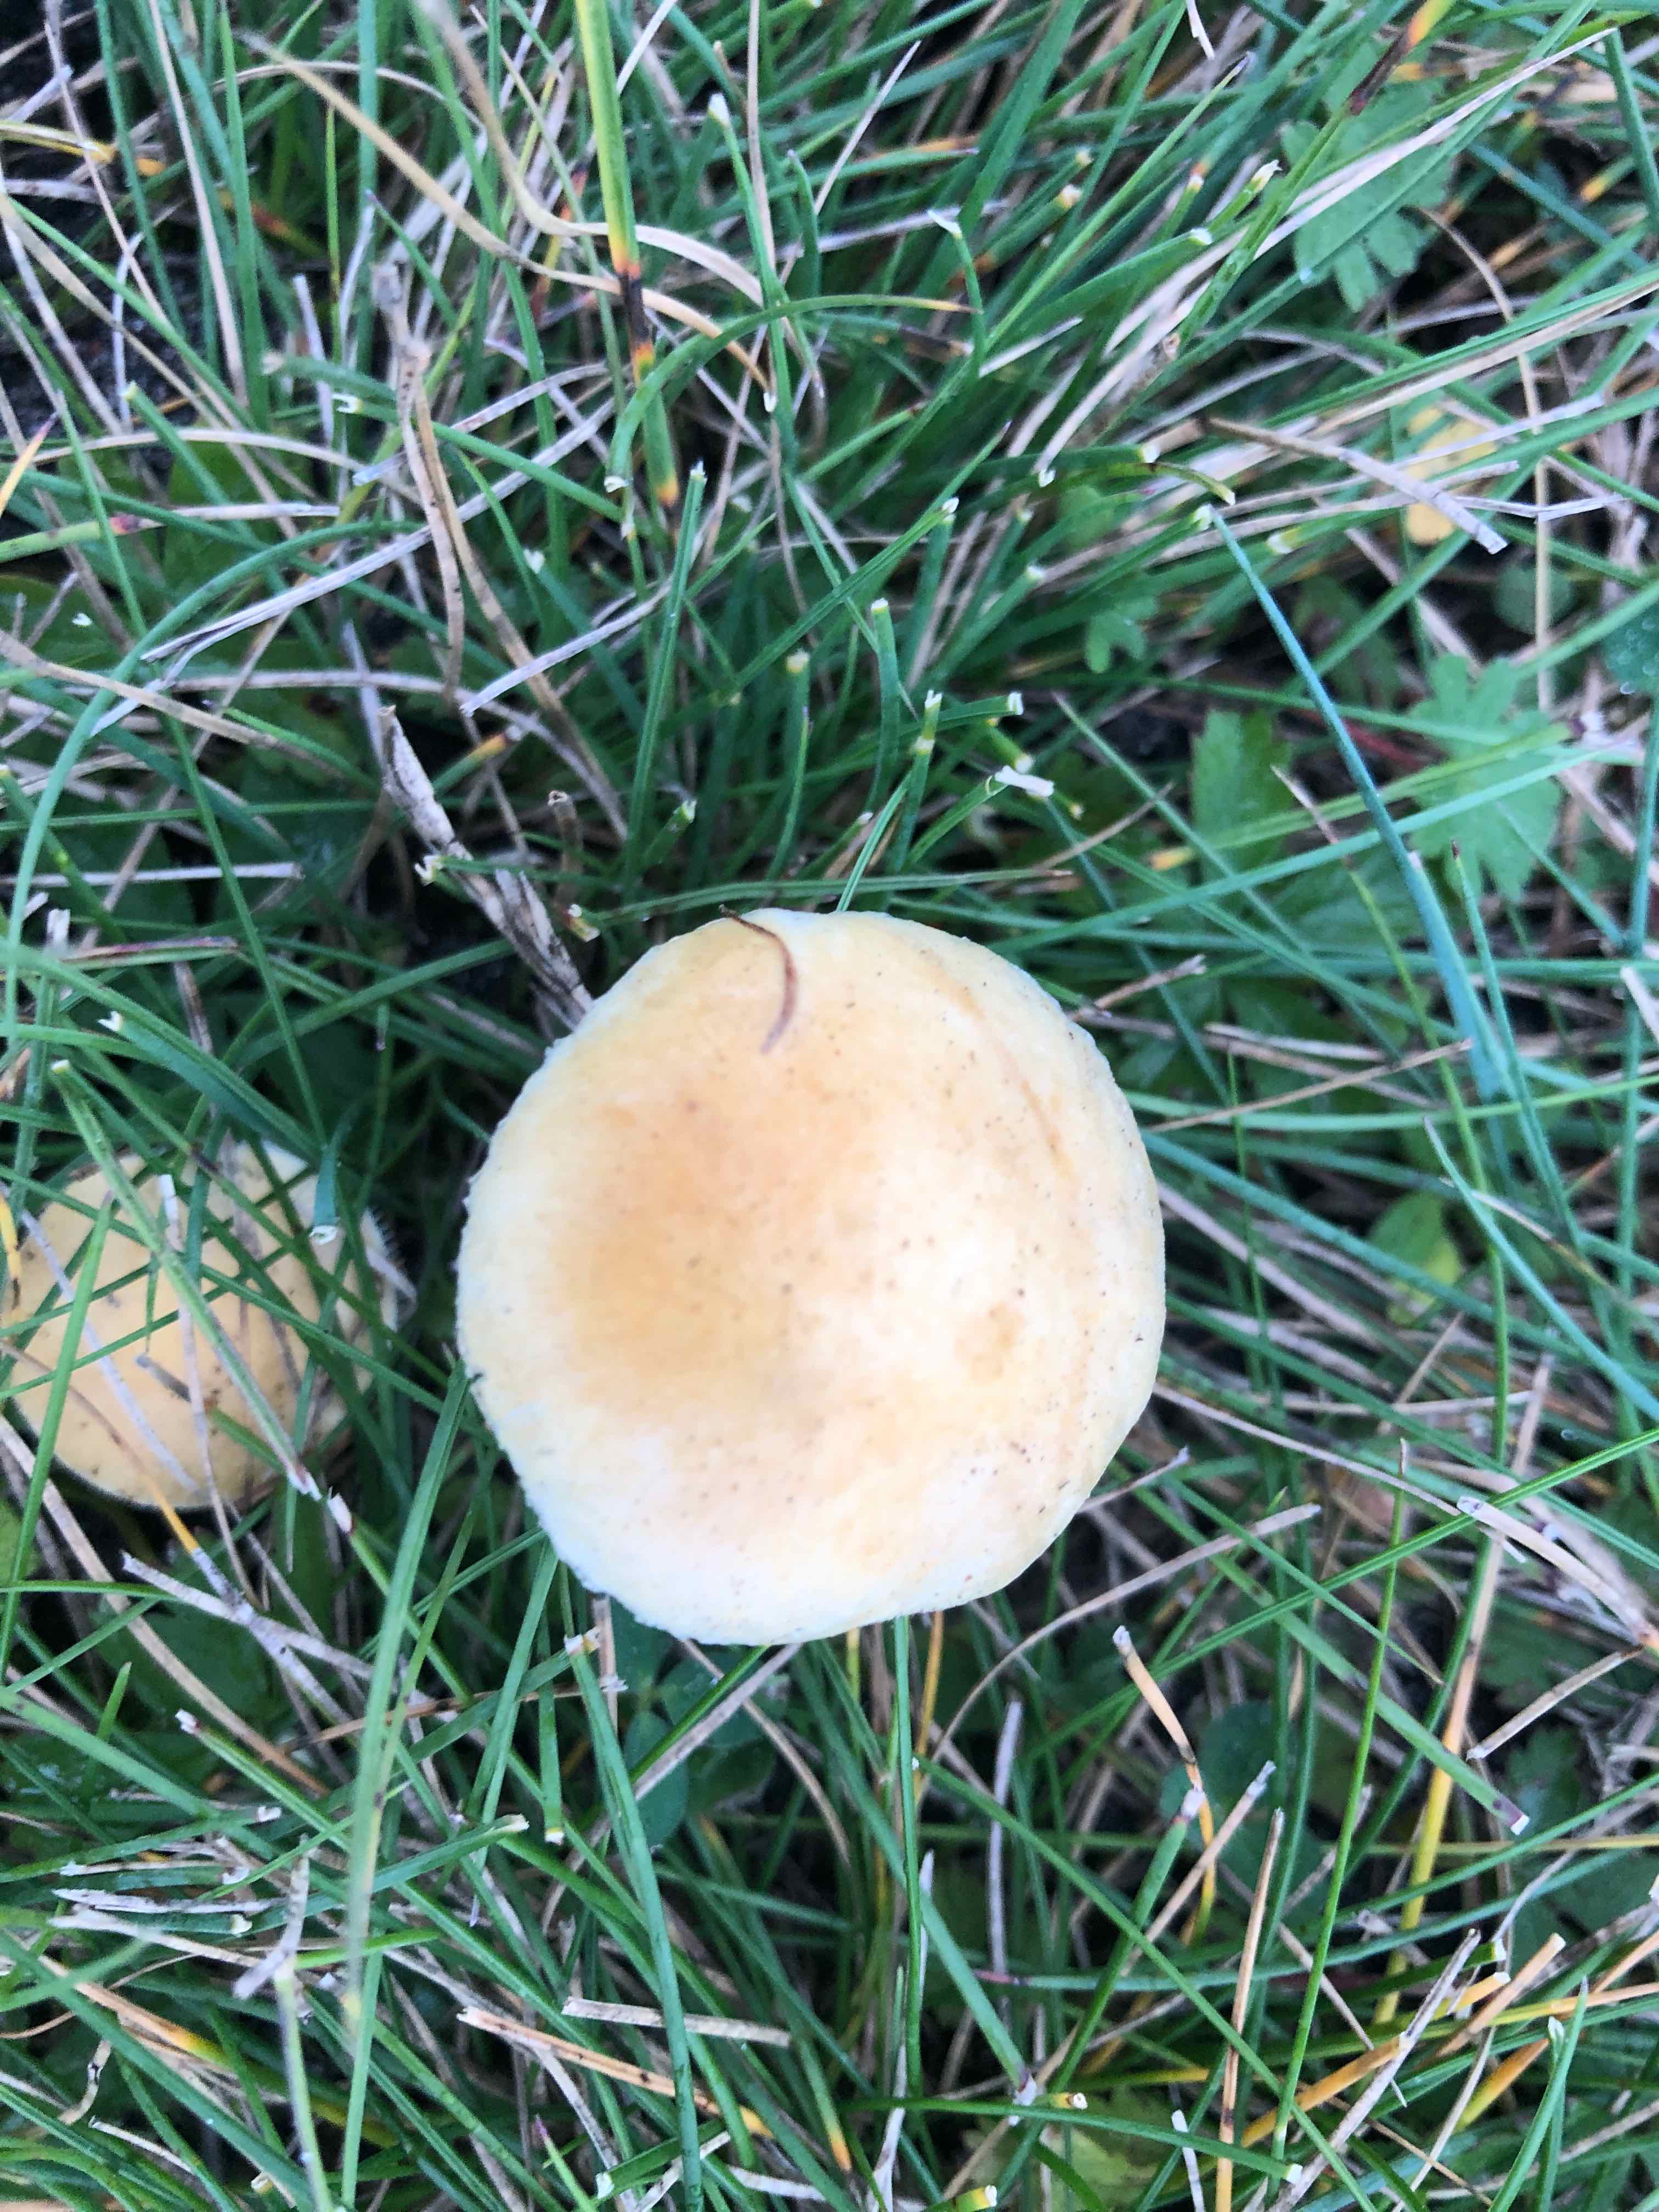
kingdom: Fungi
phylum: Basidiomycota
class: Agaricomycetes
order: Agaricales
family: Hymenogastraceae
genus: Psilocybe
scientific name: Psilocybe coronilla
